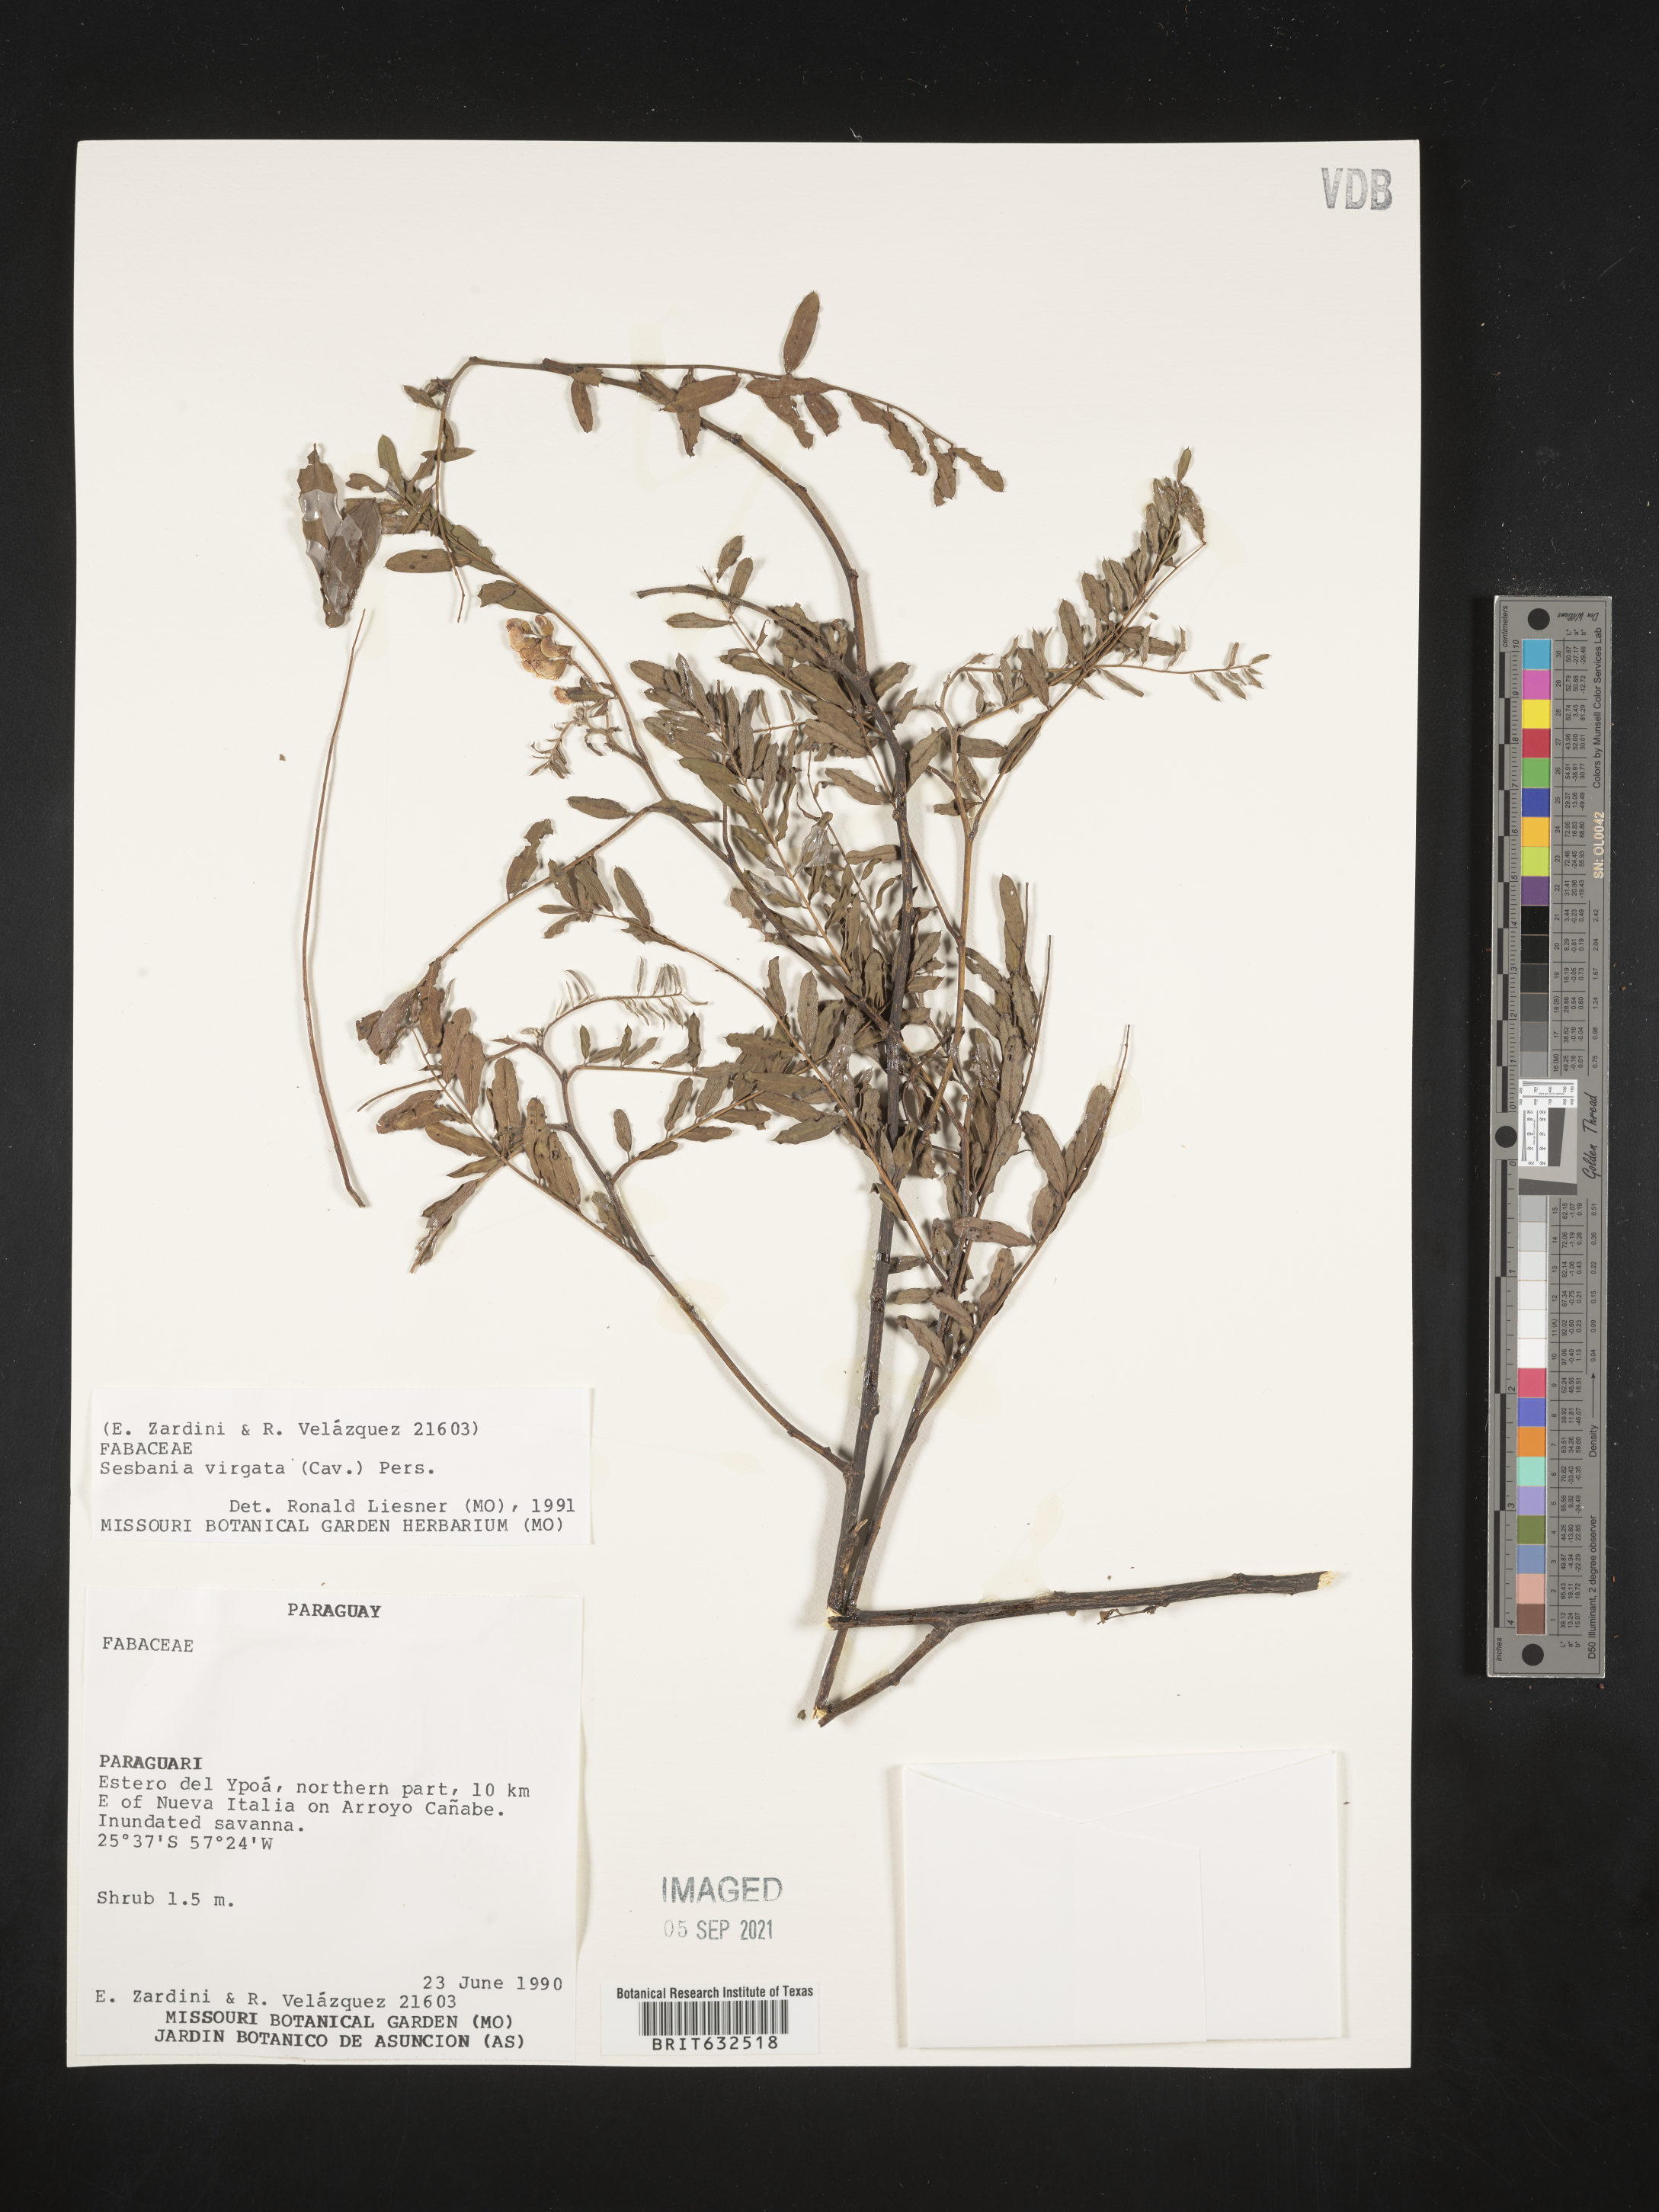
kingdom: Plantae
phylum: Tracheophyta
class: Magnoliopsida
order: Fabales
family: Fabaceae
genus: Sesbania
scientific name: Sesbania
